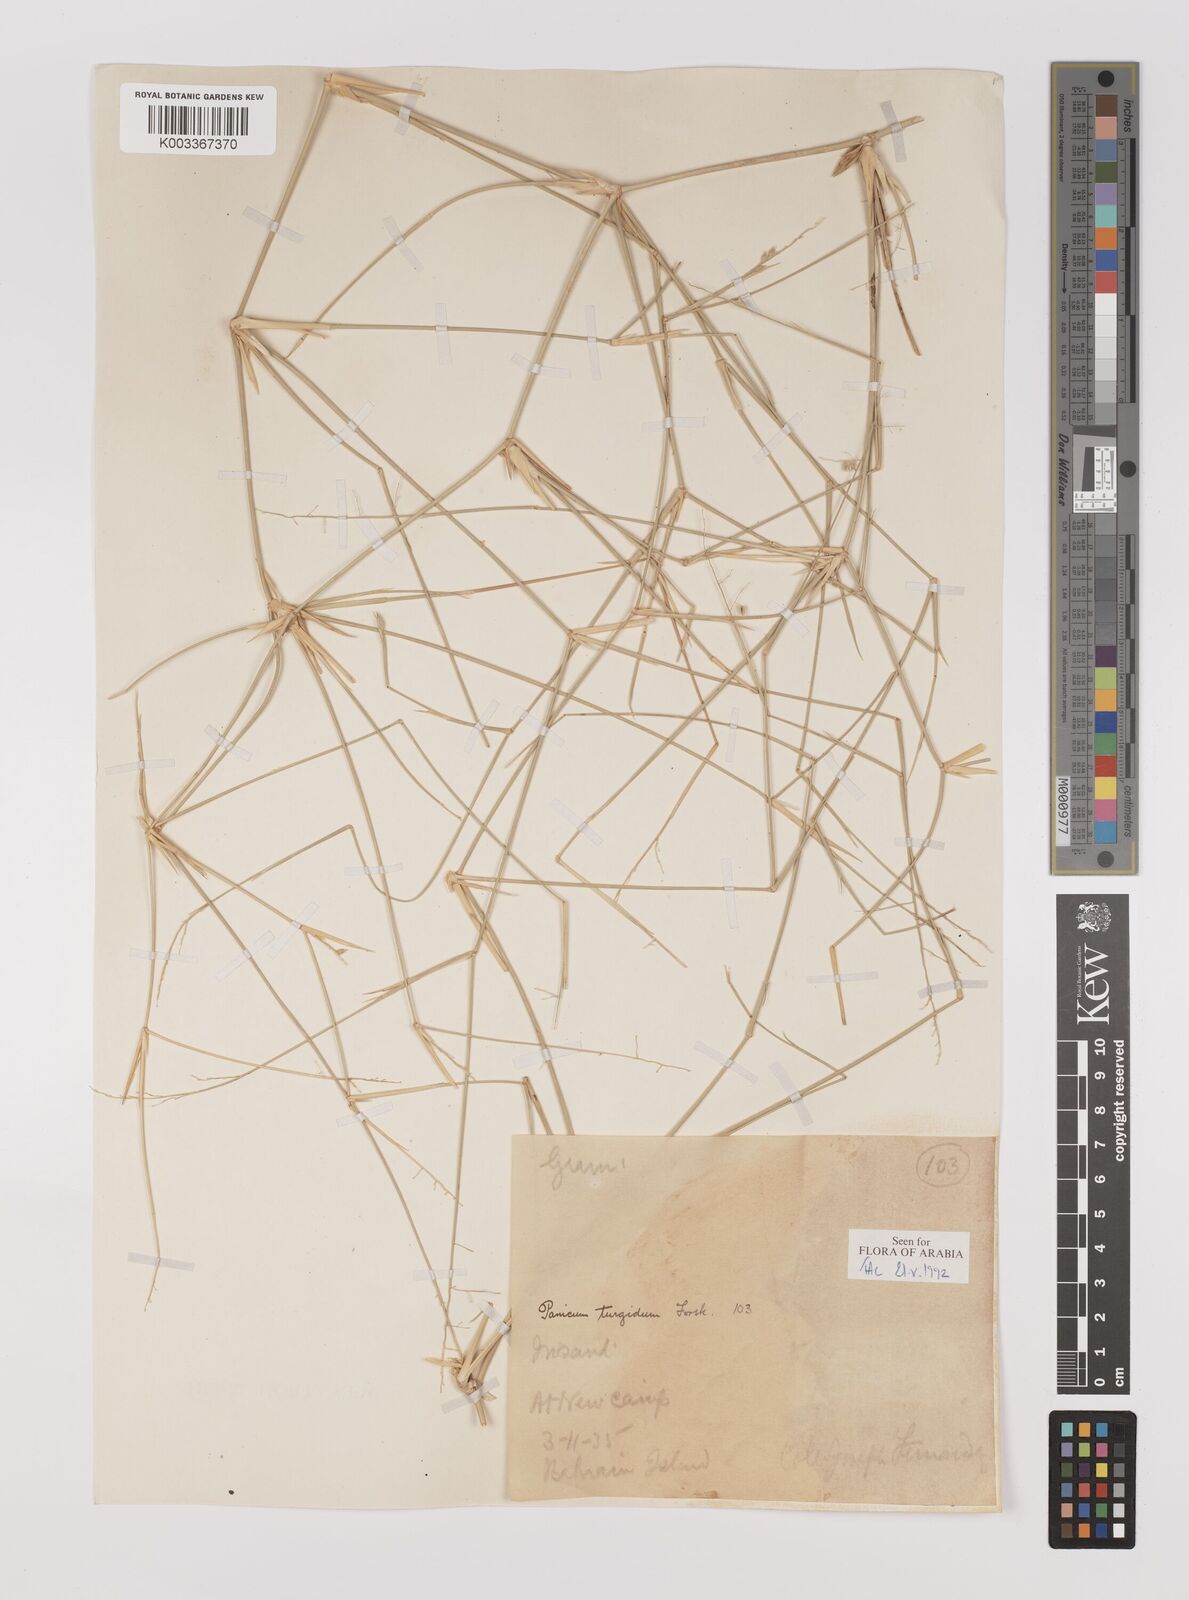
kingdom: Plantae
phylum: Tracheophyta
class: Liliopsida
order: Poales
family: Poaceae
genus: Panicum
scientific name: Panicum turgidum
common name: Desert grass
